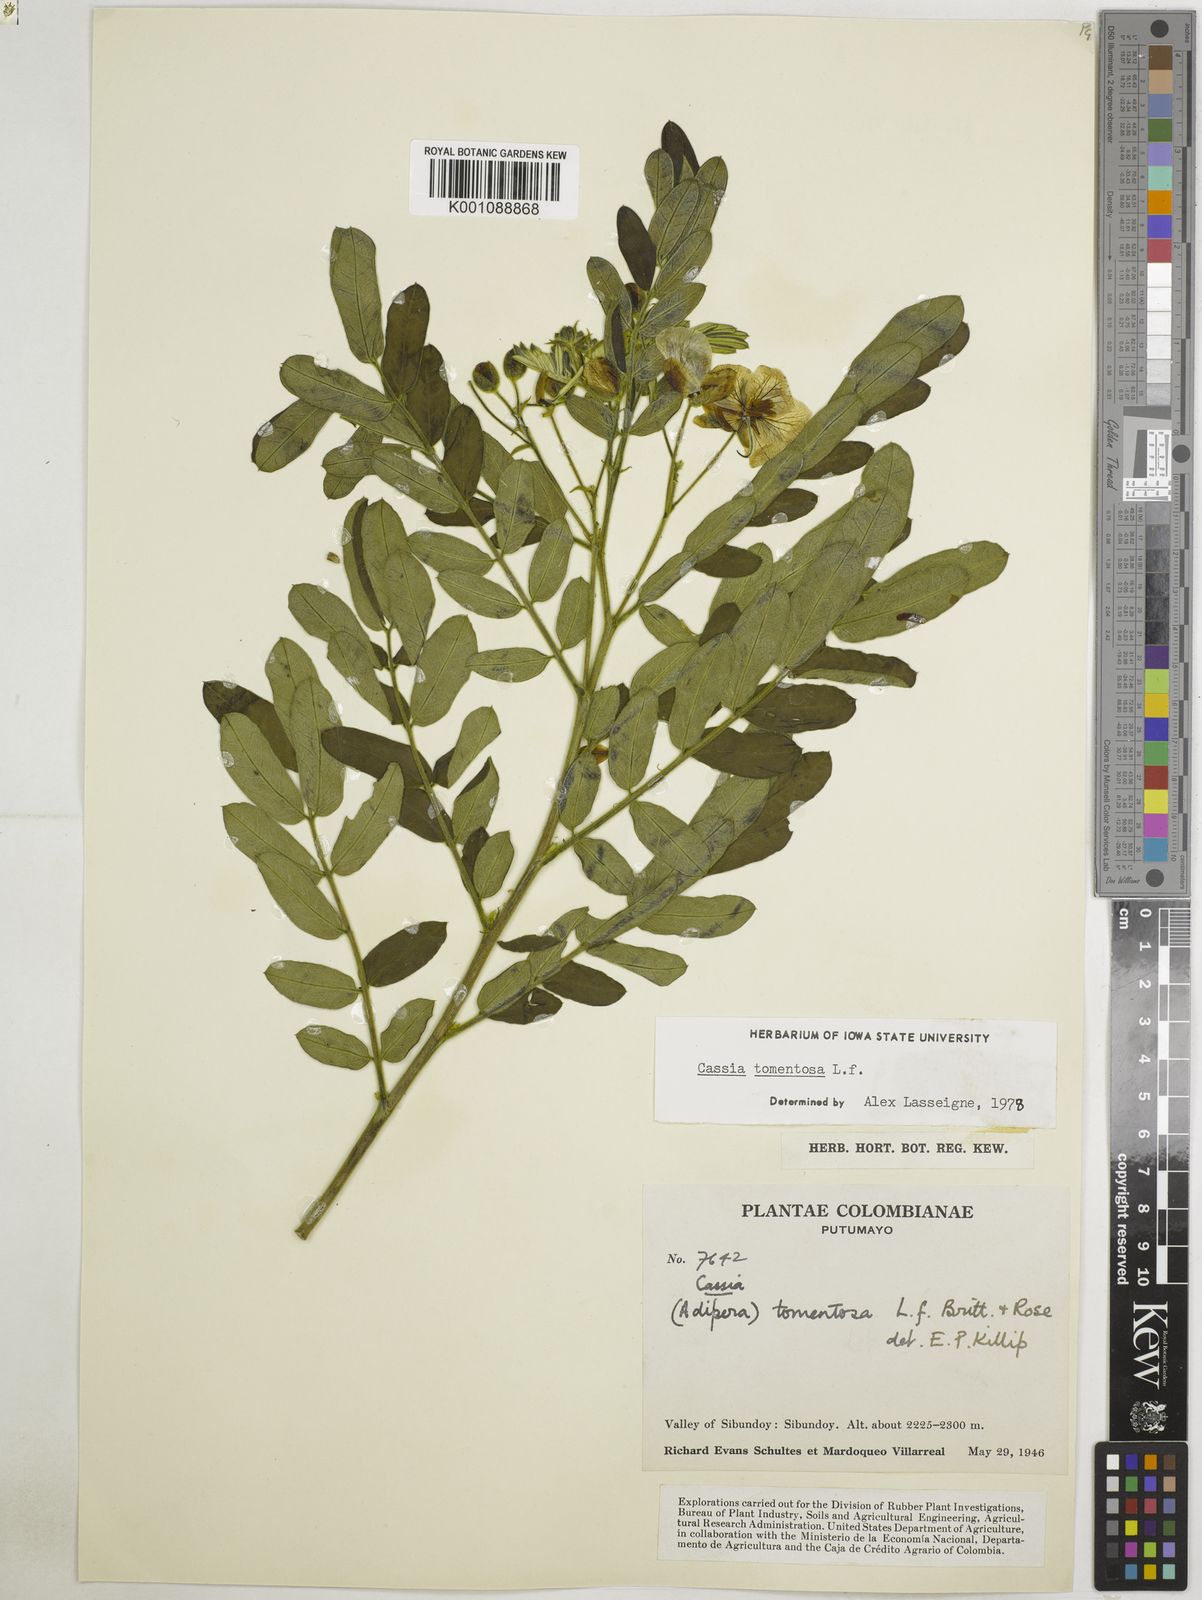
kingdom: Plantae
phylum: Tracheophyta
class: Magnoliopsida
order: Fabales
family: Fabaceae
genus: Senna
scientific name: Senna multiglandulosa
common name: Glandular senna
